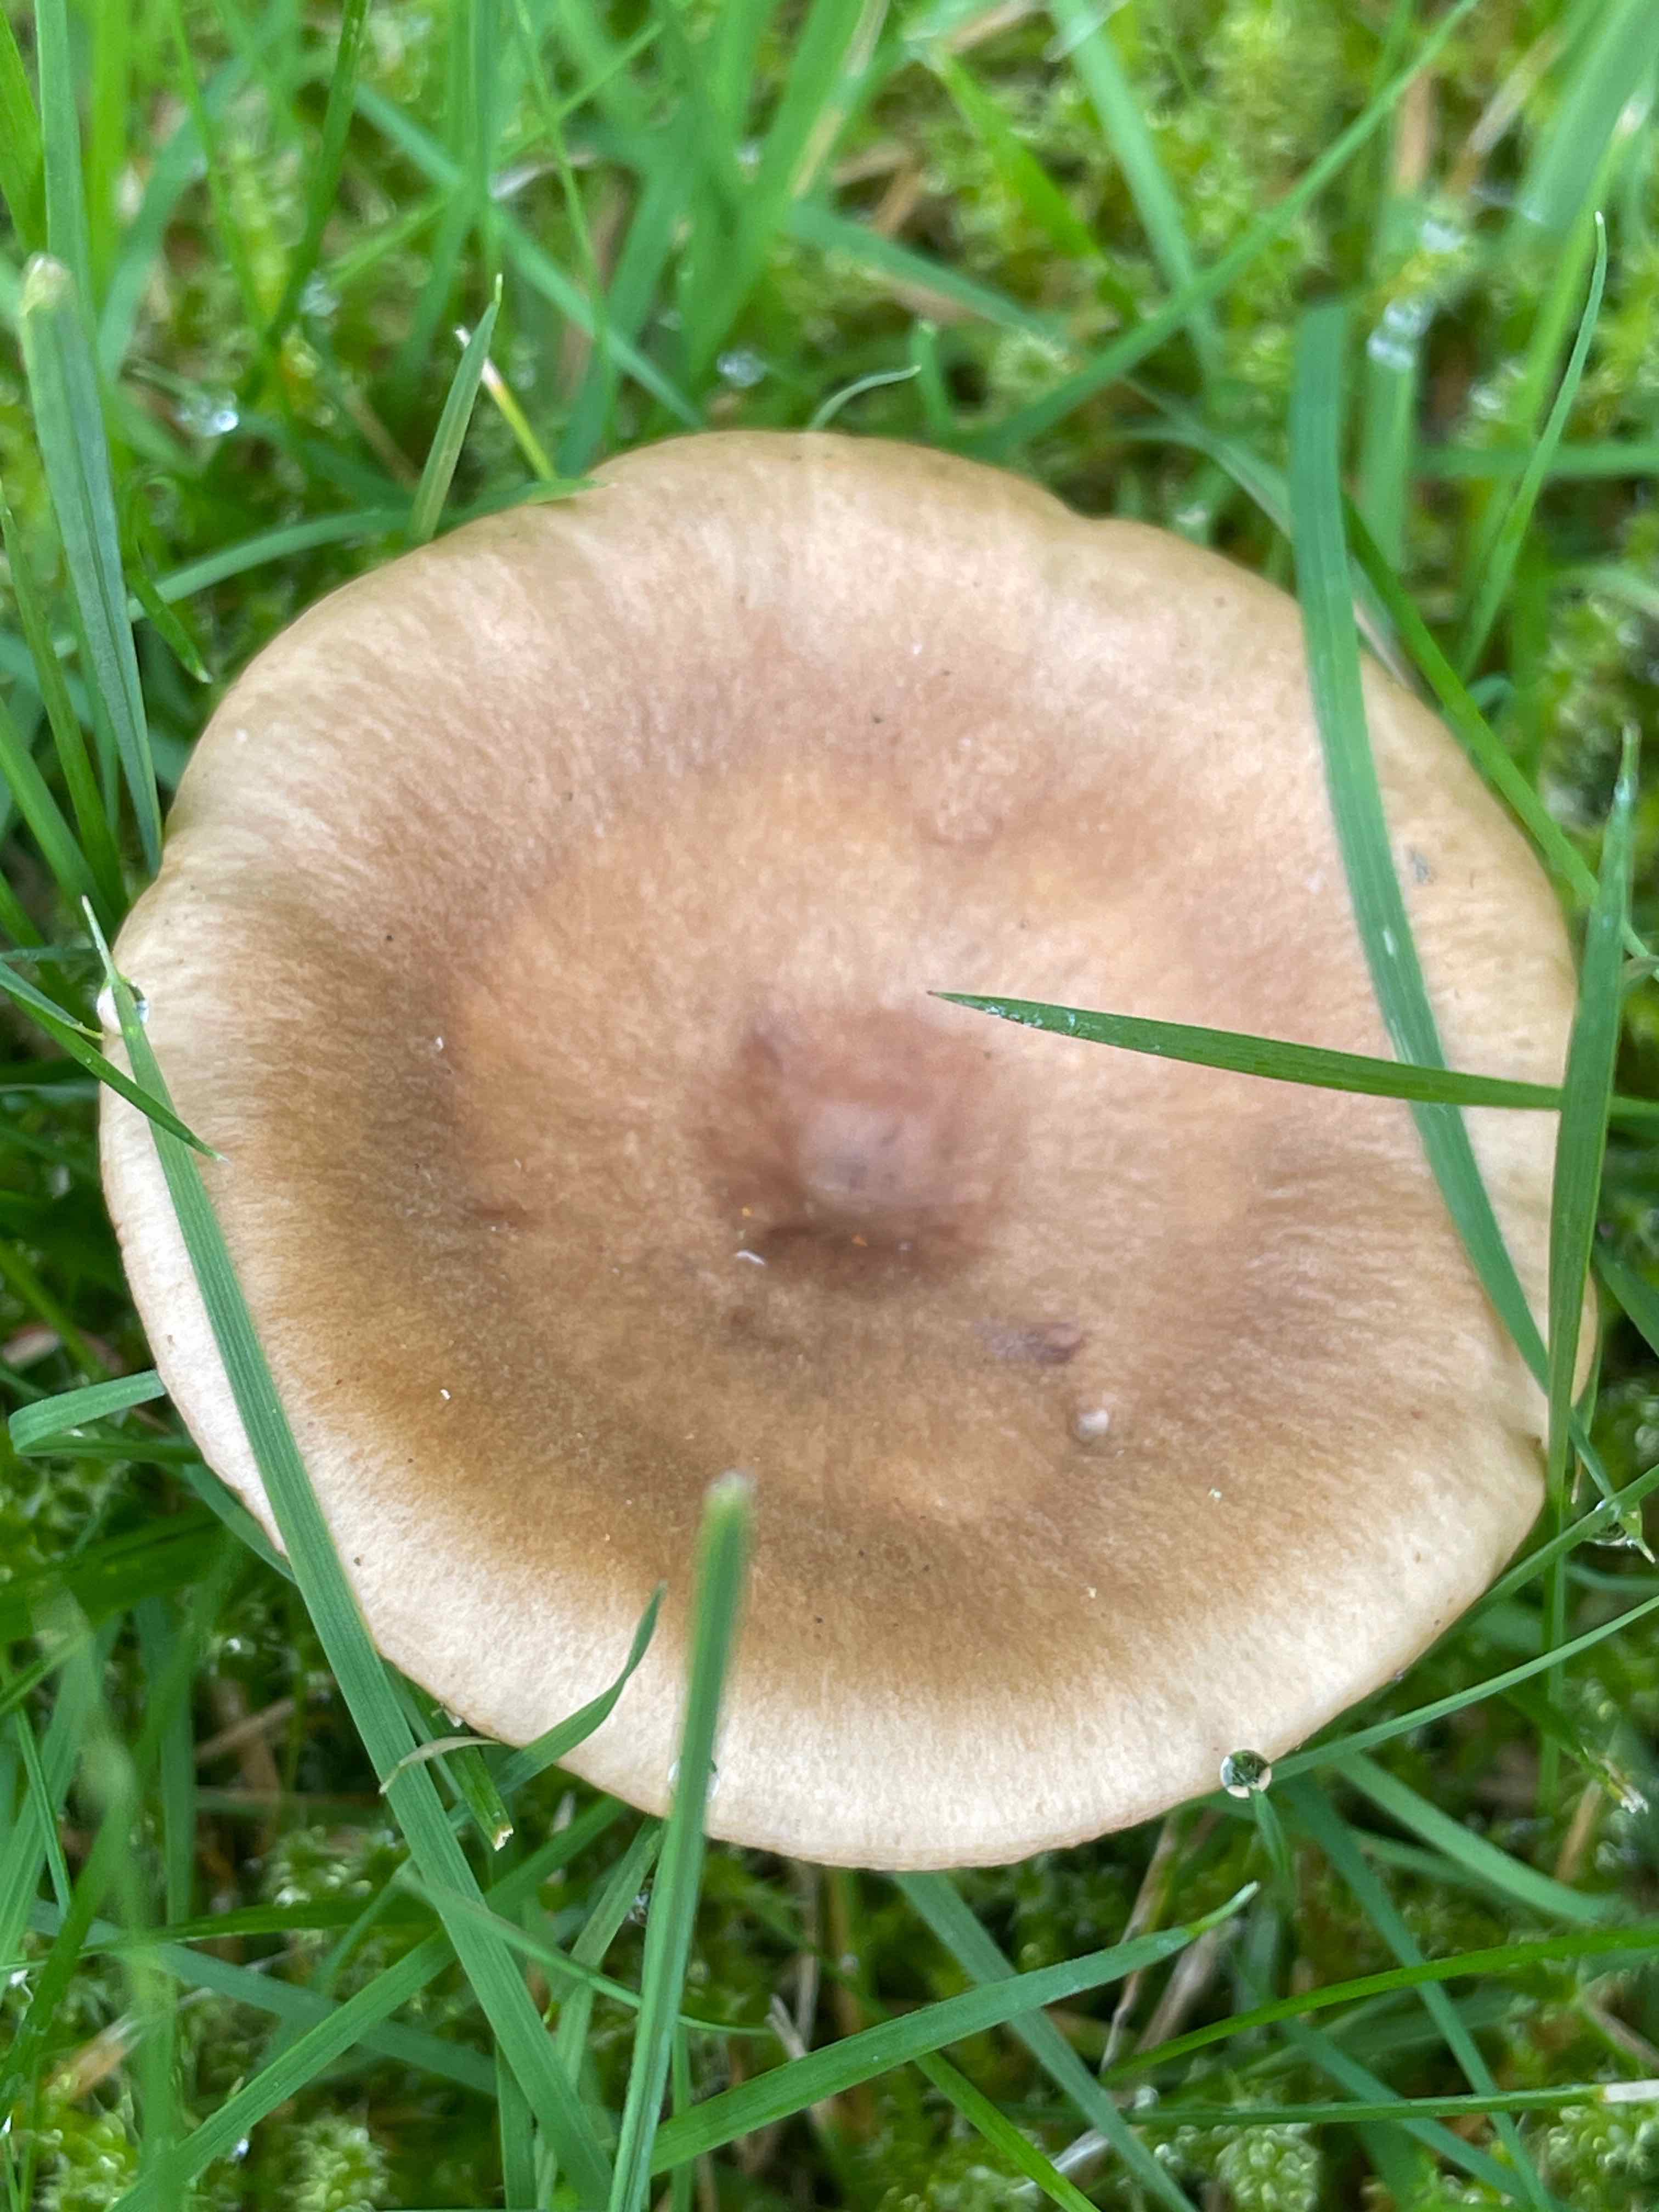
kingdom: Fungi
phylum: Basidiomycota
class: Agaricomycetes
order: Russulales
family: Russulaceae
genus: Lactarius
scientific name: Lactarius pyrogalus
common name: hassel-mælkehat
